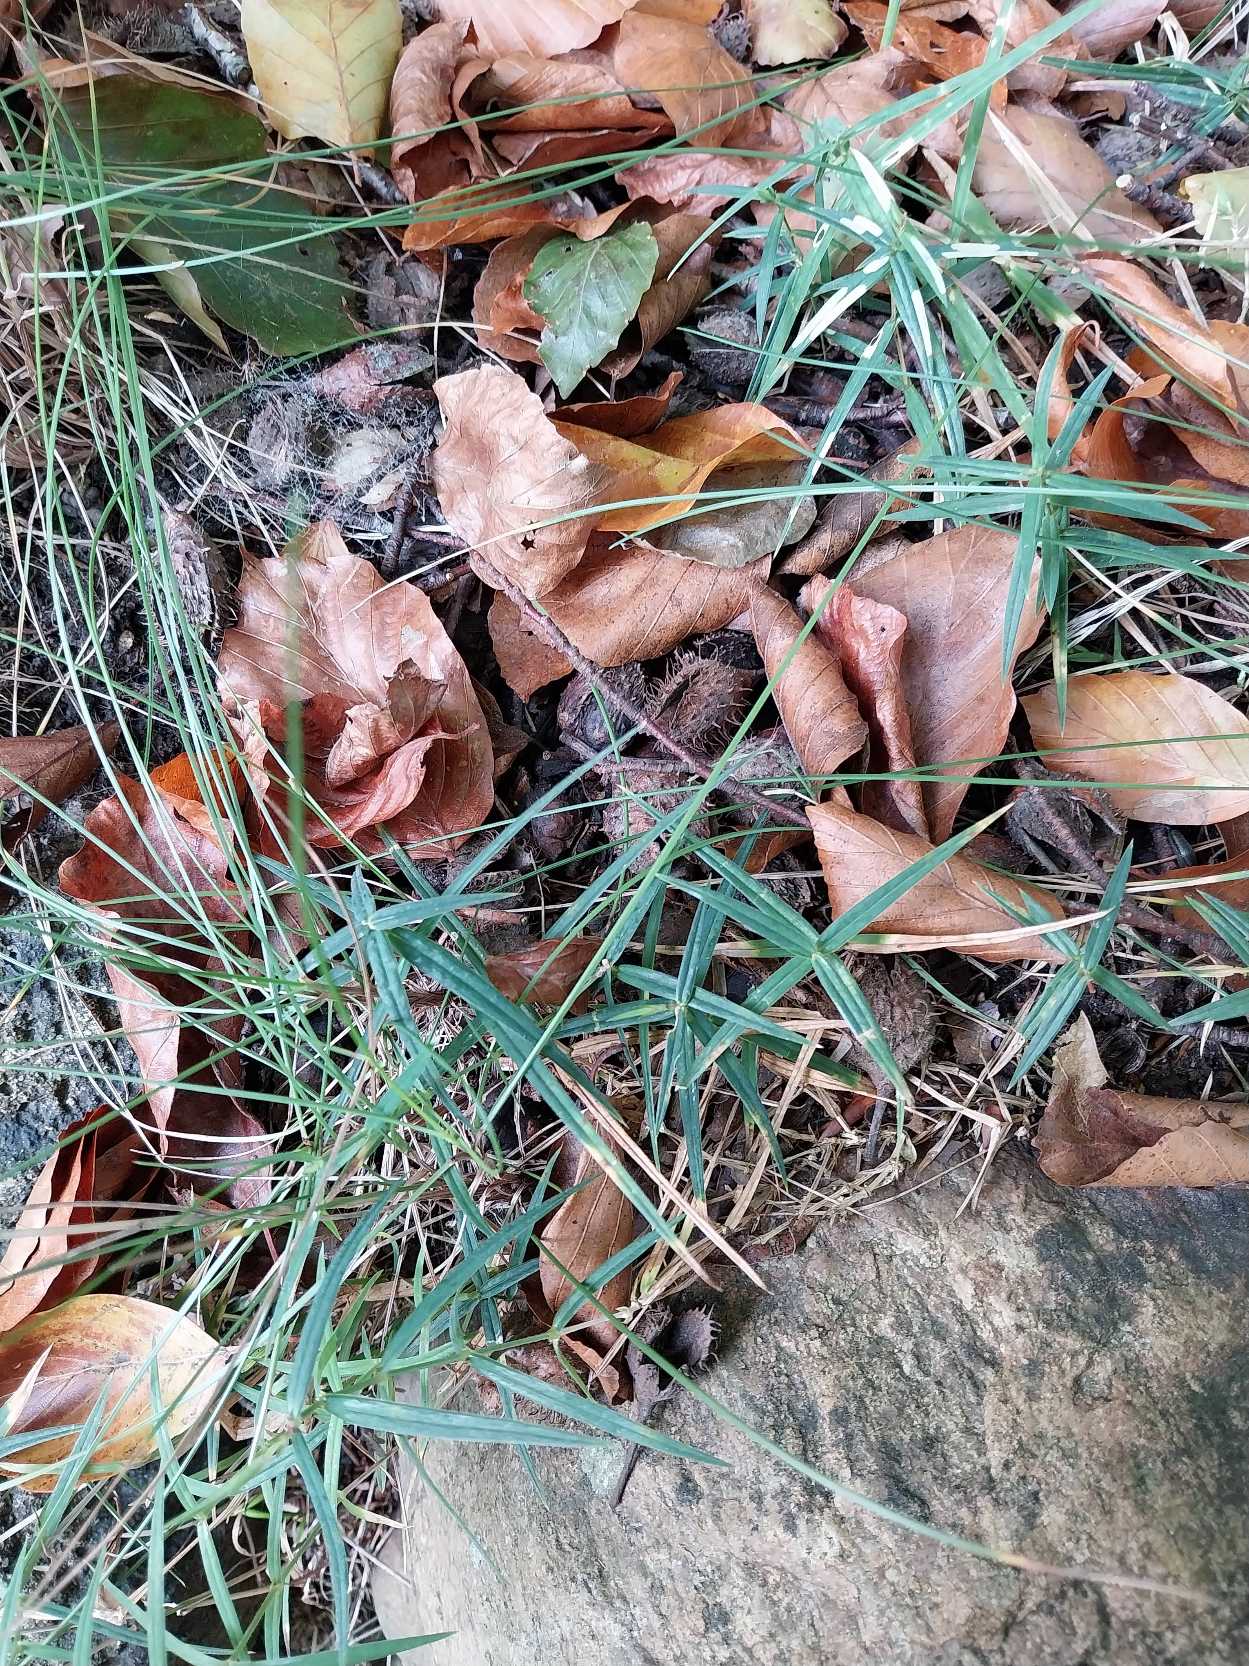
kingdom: Plantae
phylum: Tracheophyta
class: Magnoliopsida
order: Caryophyllales
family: Caryophyllaceae
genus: Rabelera
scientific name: Rabelera holostea
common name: Stor fladstjerne
